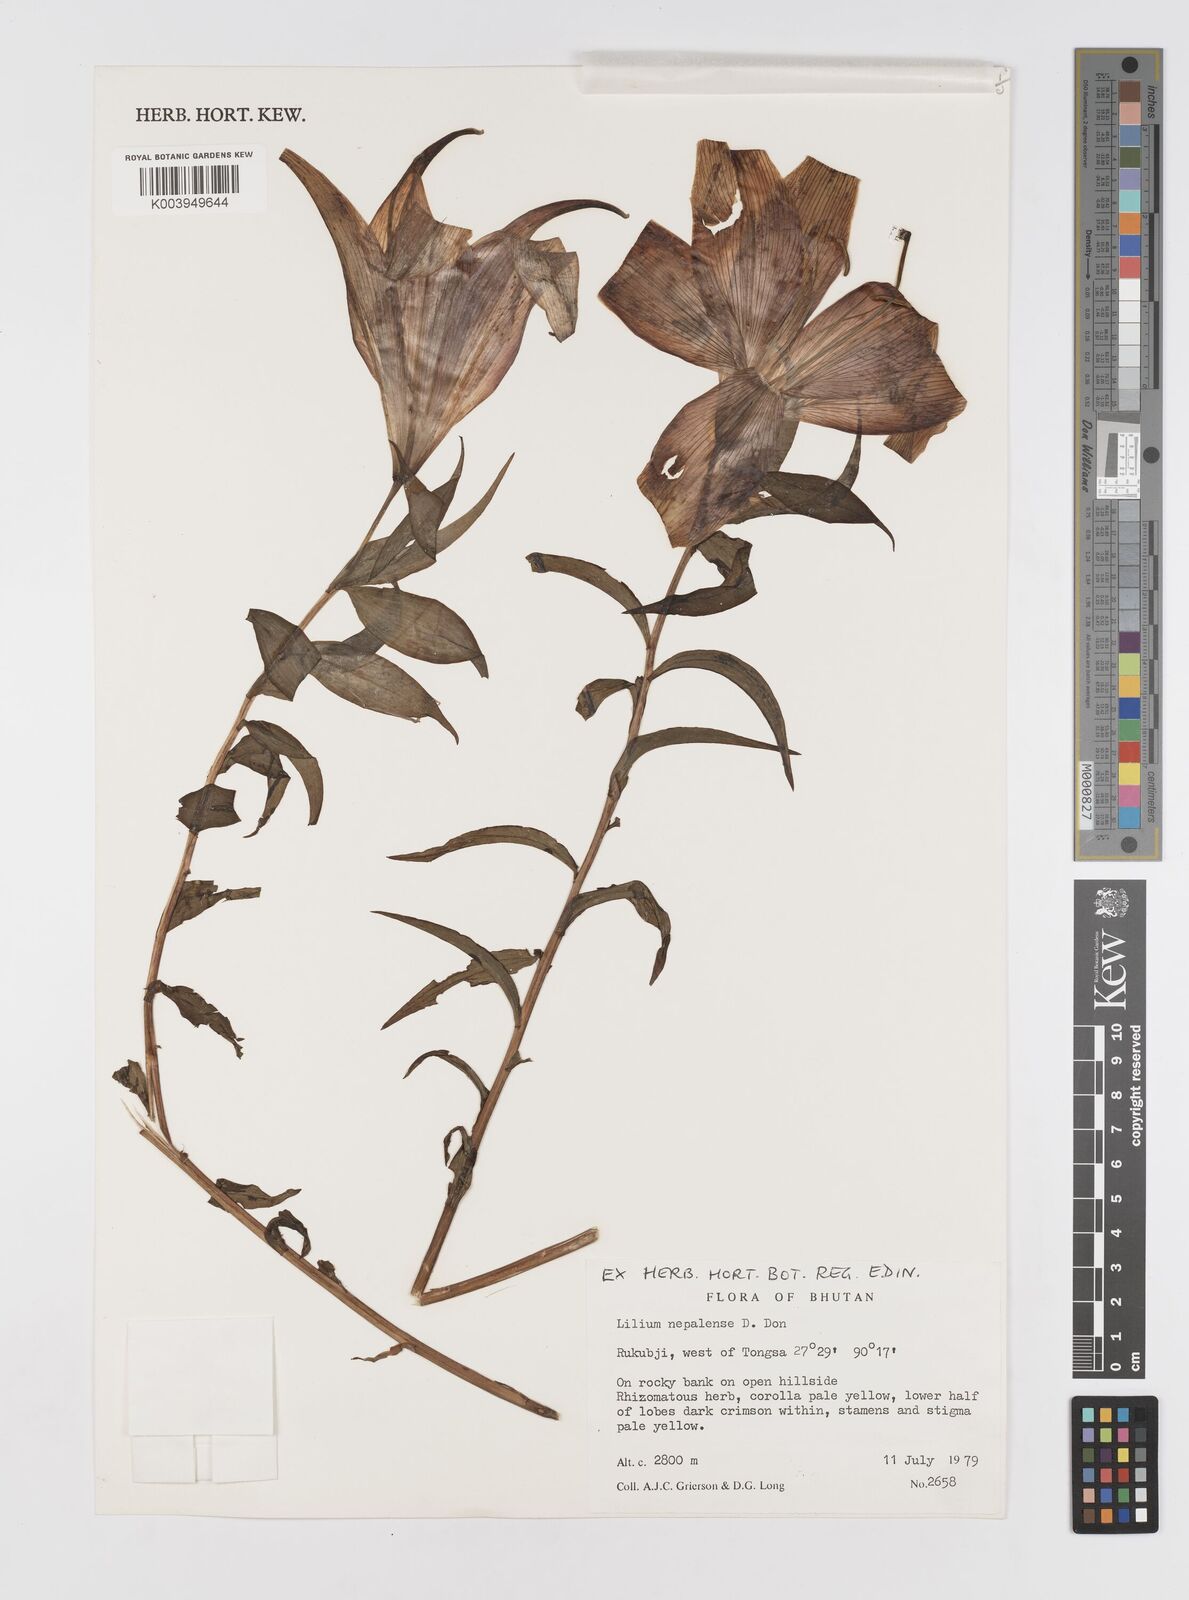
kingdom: Plantae
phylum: Tracheophyta
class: Liliopsida
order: Liliales
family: Liliaceae
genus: Lilium
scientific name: Lilium nepalense
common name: Nepal lily
